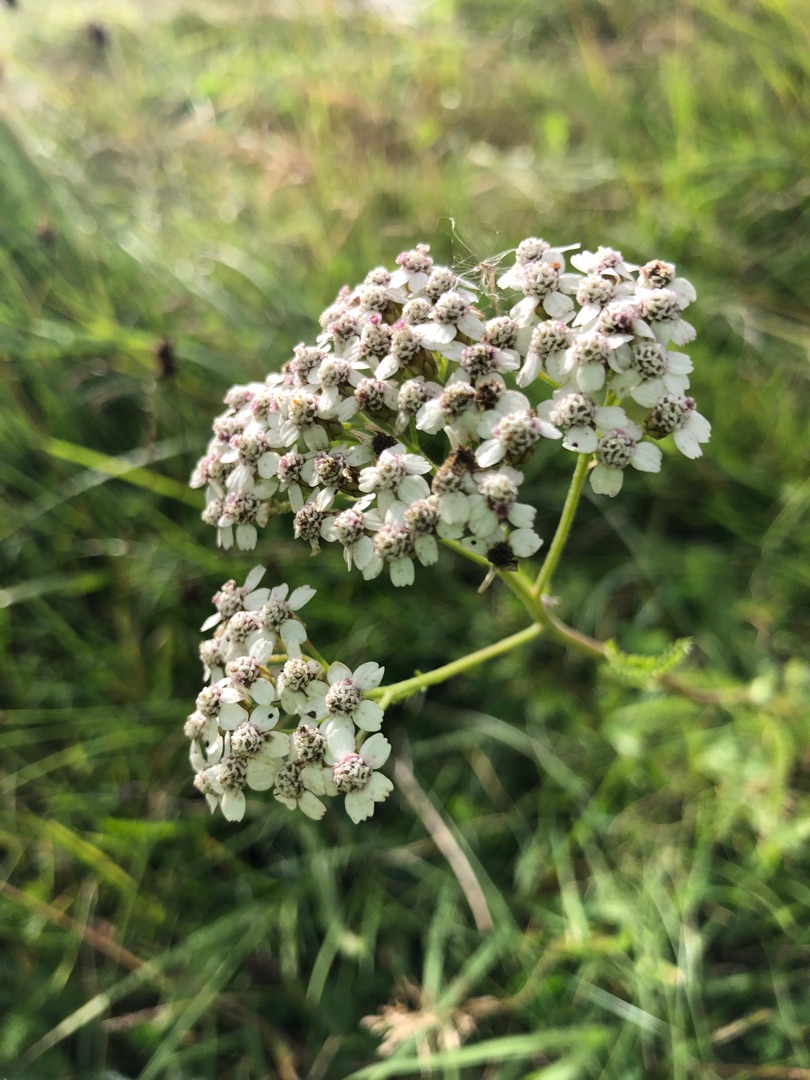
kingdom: Plantae
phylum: Tracheophyta
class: Magnoliopsida
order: Asterales
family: Asteraceae
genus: Achillea
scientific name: Achillea millefolium
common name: Almindelig røllike
